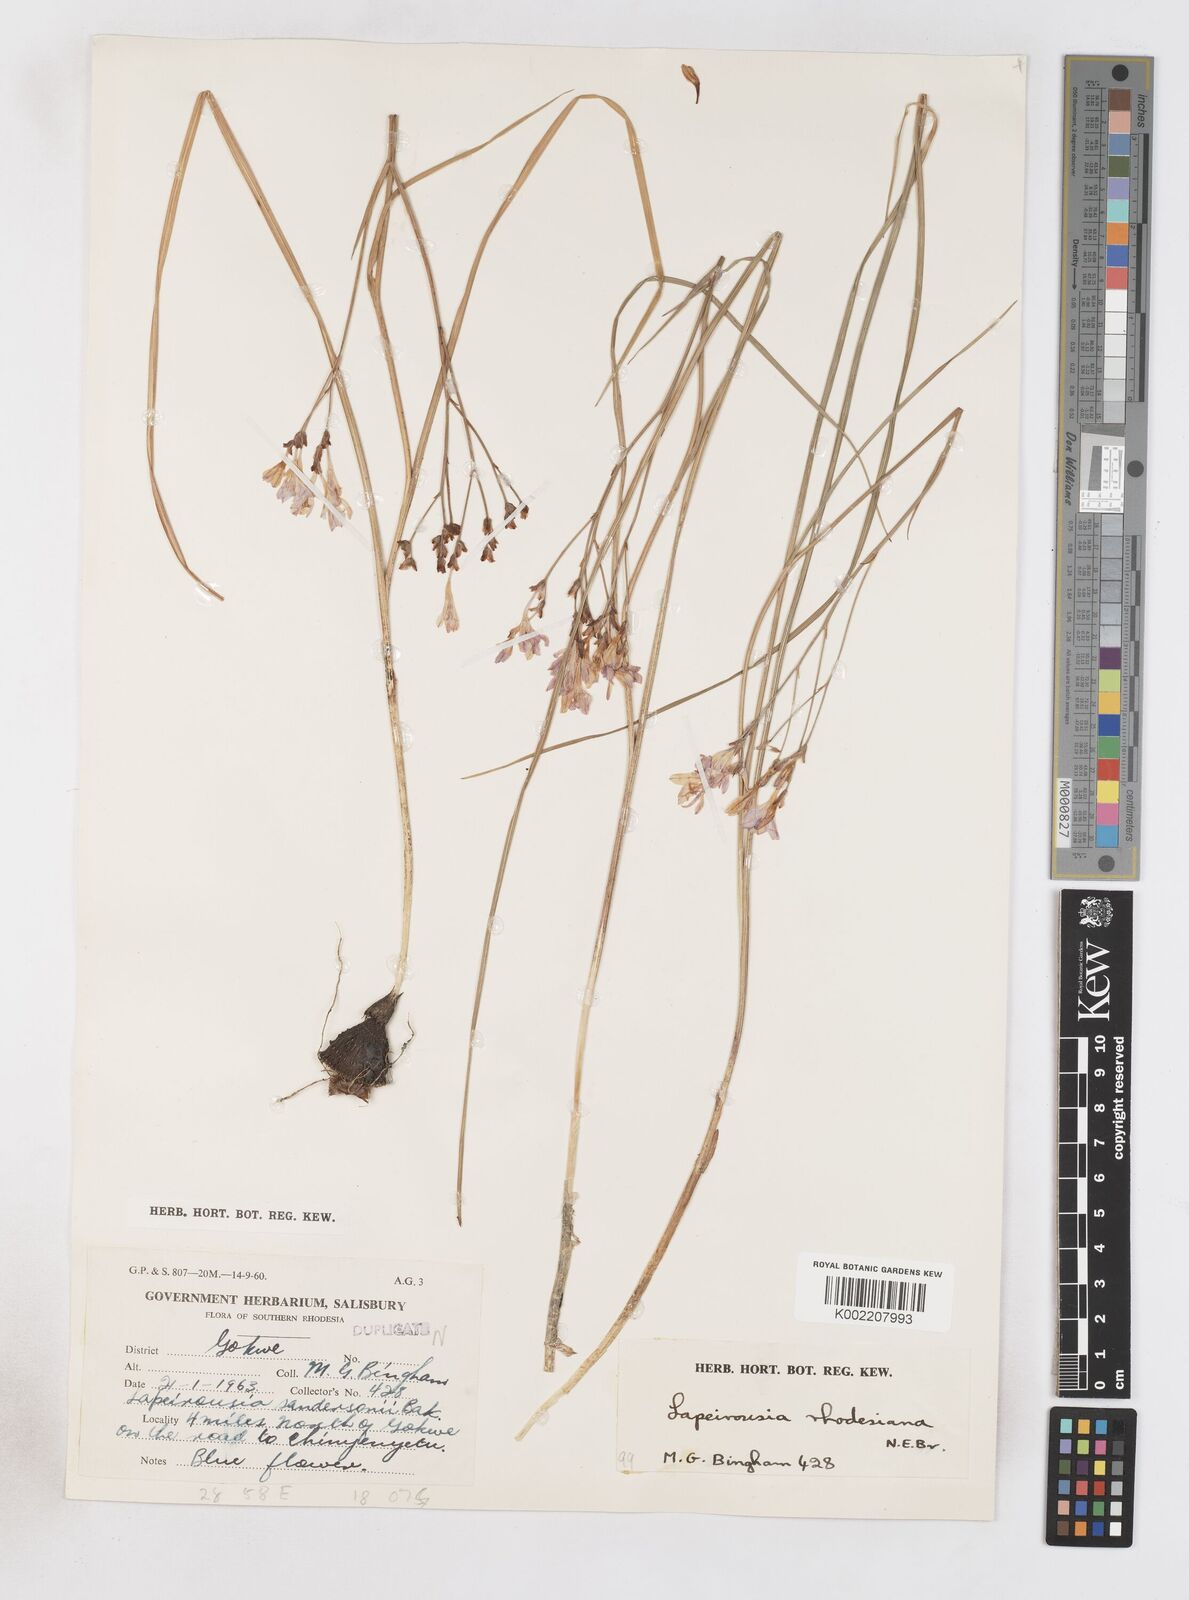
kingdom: Plantae
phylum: Tracheophyta
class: Liliopsida
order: Asparagales
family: Iridaceae
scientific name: Iridaceae
